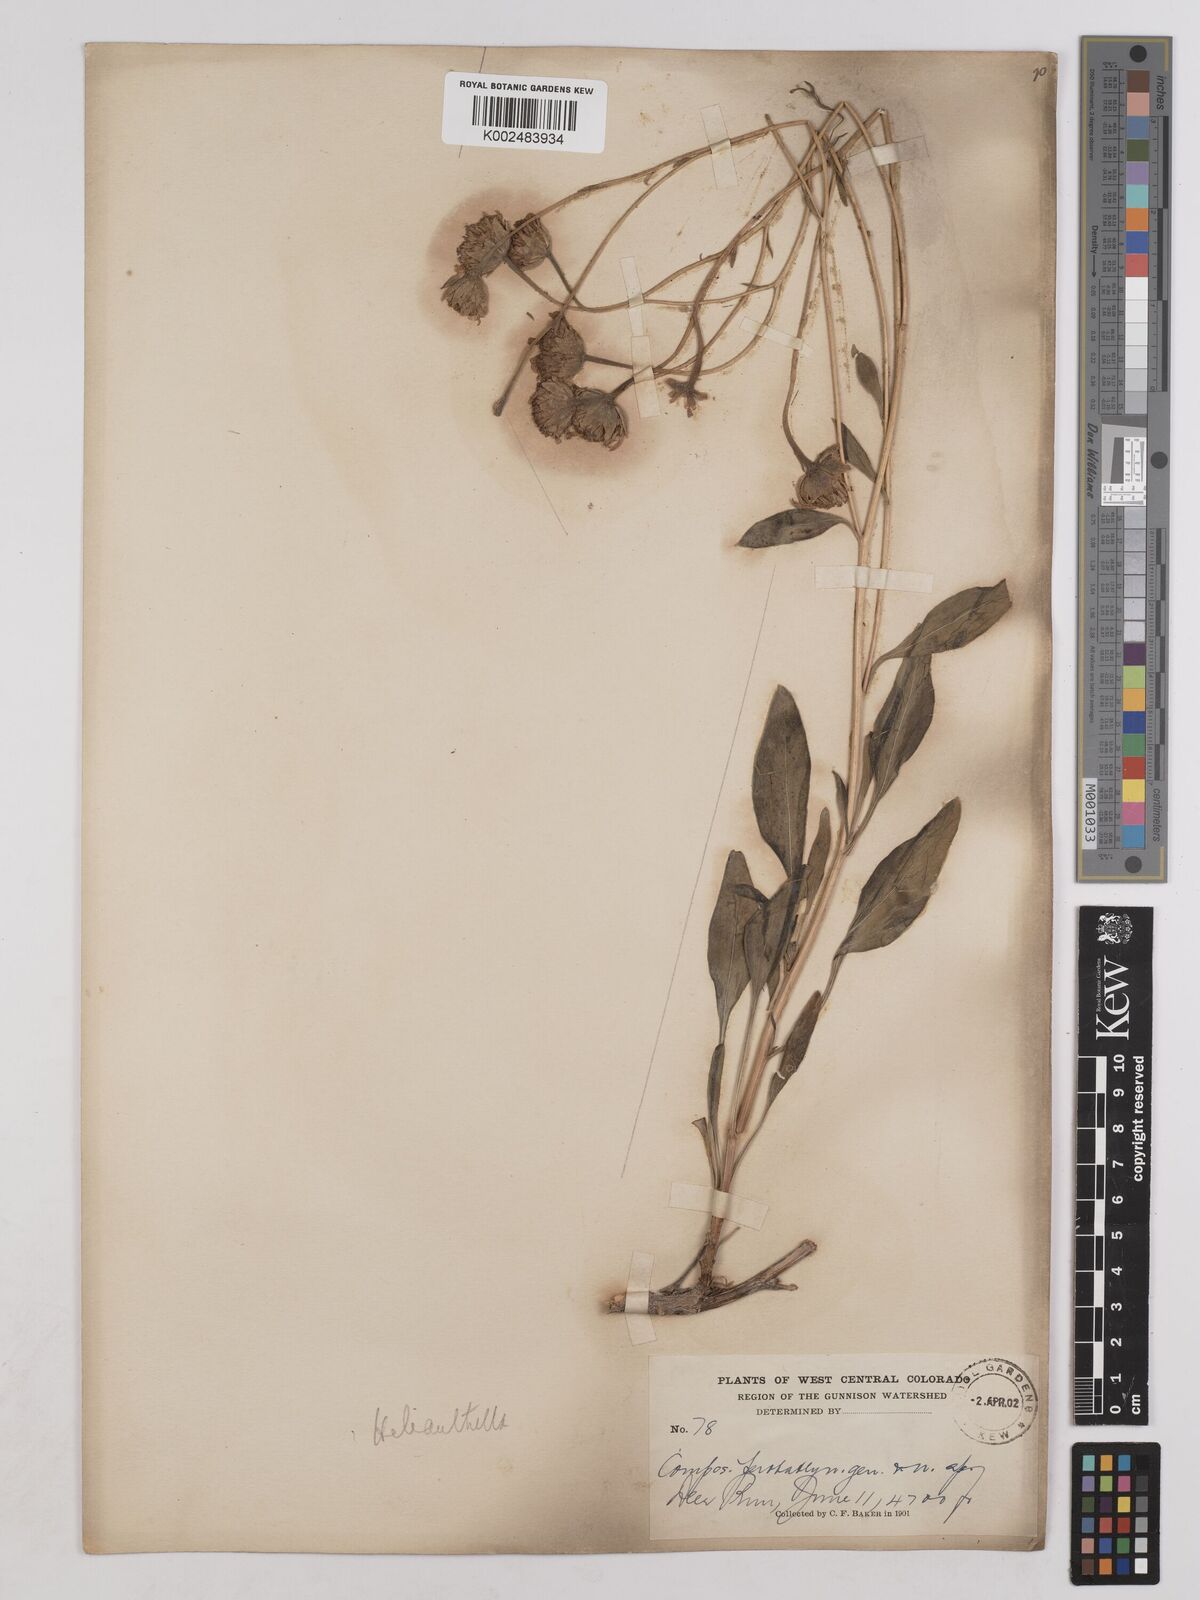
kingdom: Plantae
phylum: Tracheophyta
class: Magnoliopsida
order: Asterales
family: Asteraceae
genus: Helianthella
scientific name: Helianthella
